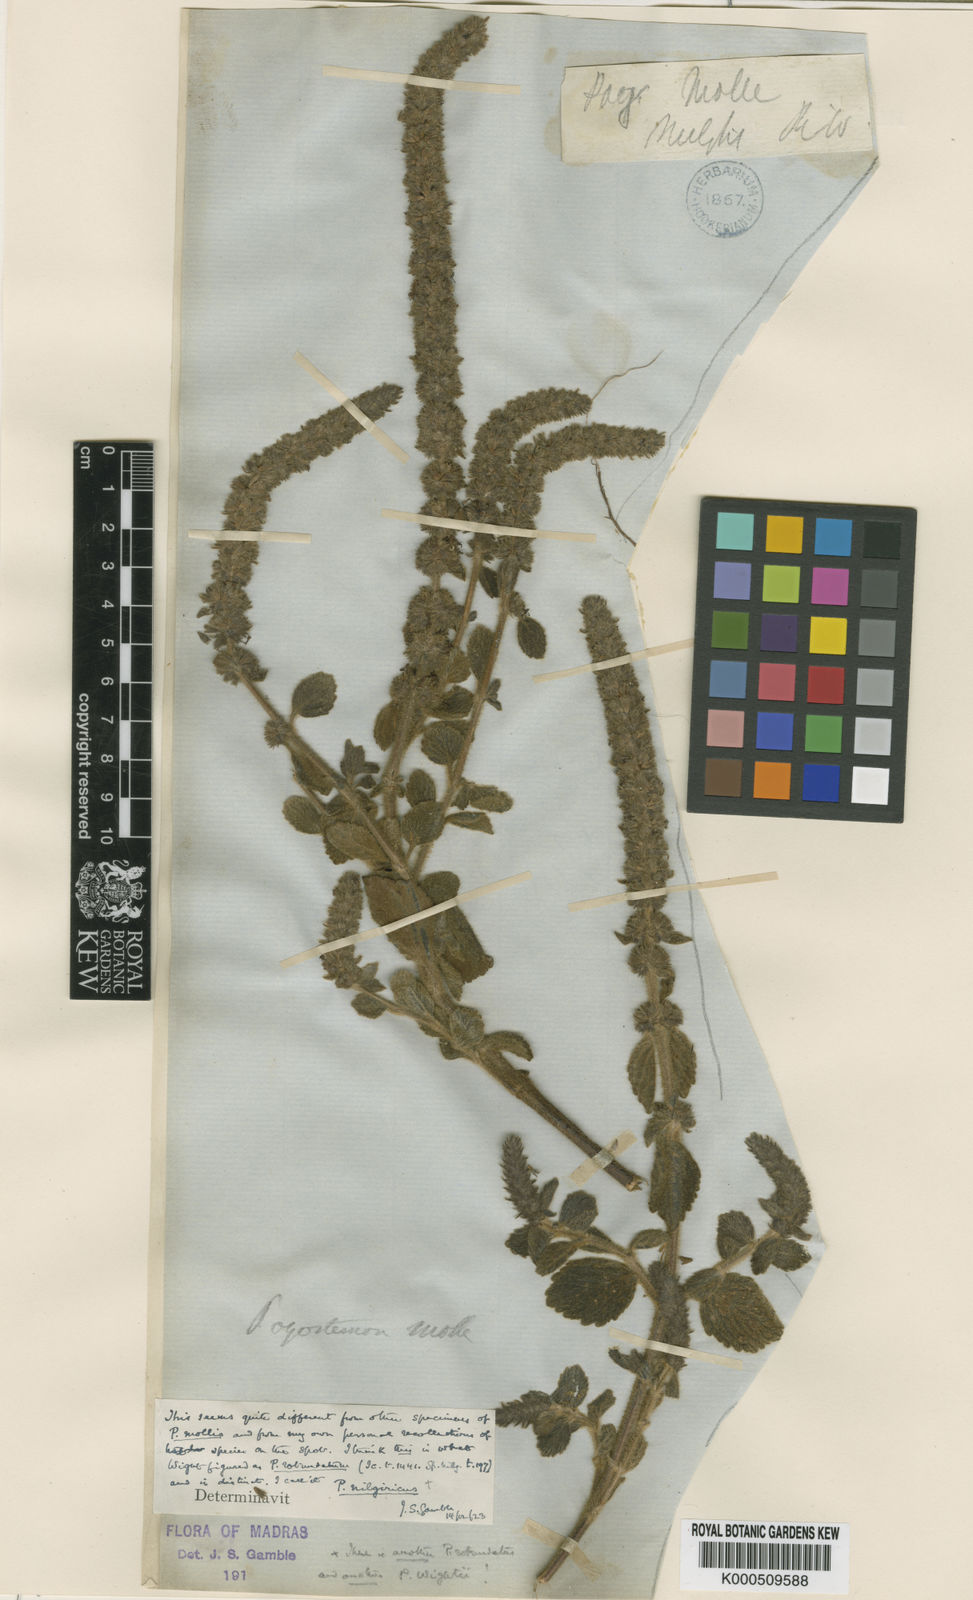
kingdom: Plantae
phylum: Tracheophyta
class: Magnoliopsida
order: Lamiales
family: Lamiaceae
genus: Pogostemon
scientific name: Pogostemon nilagiricus
